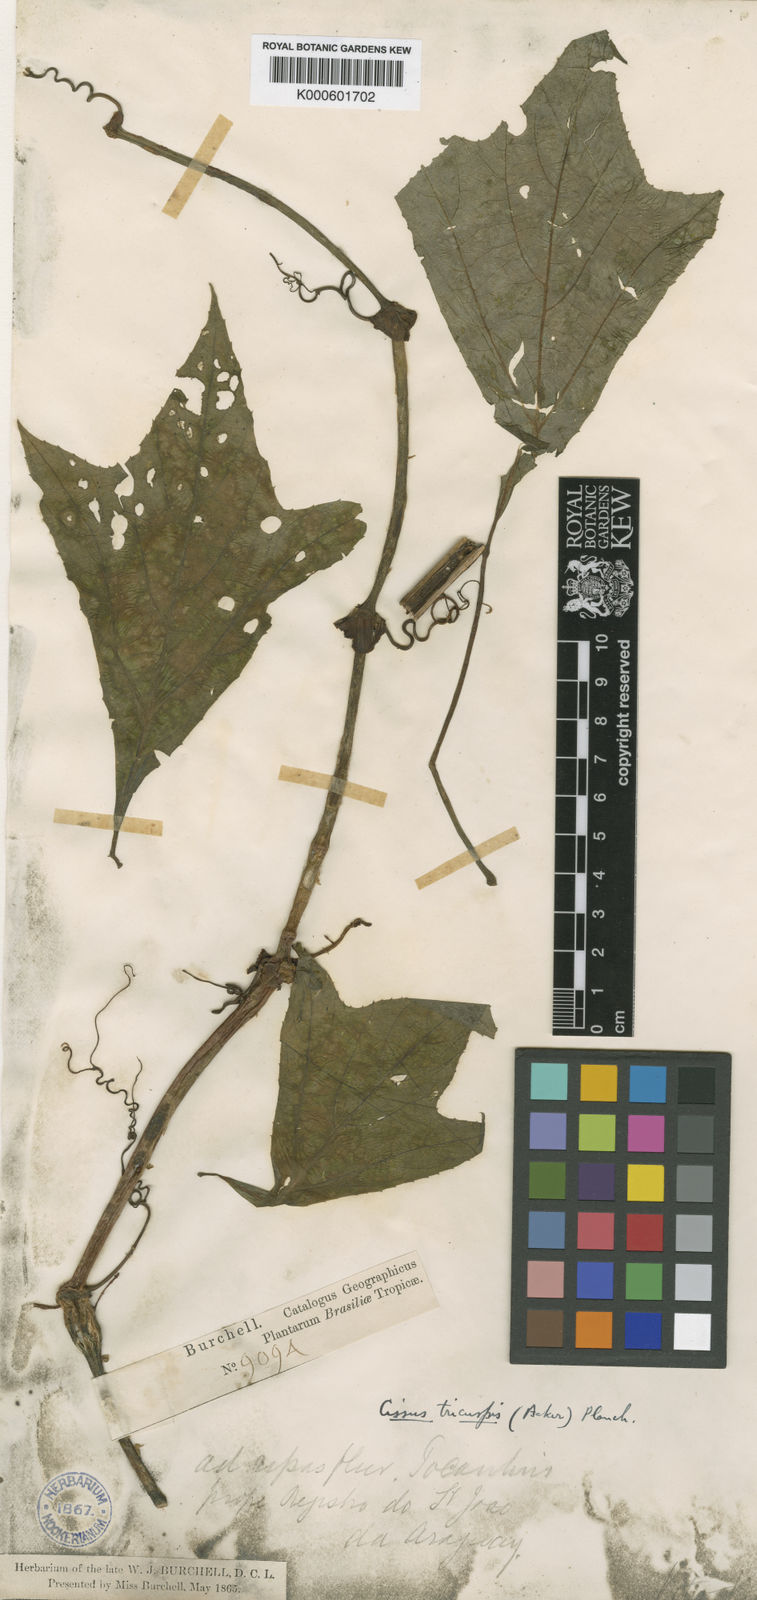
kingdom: Plantae
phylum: Tracheophyta
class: Magnoliopsida
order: Vitales
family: Vitaceae
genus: Cissus
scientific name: Cissus gongylodes
